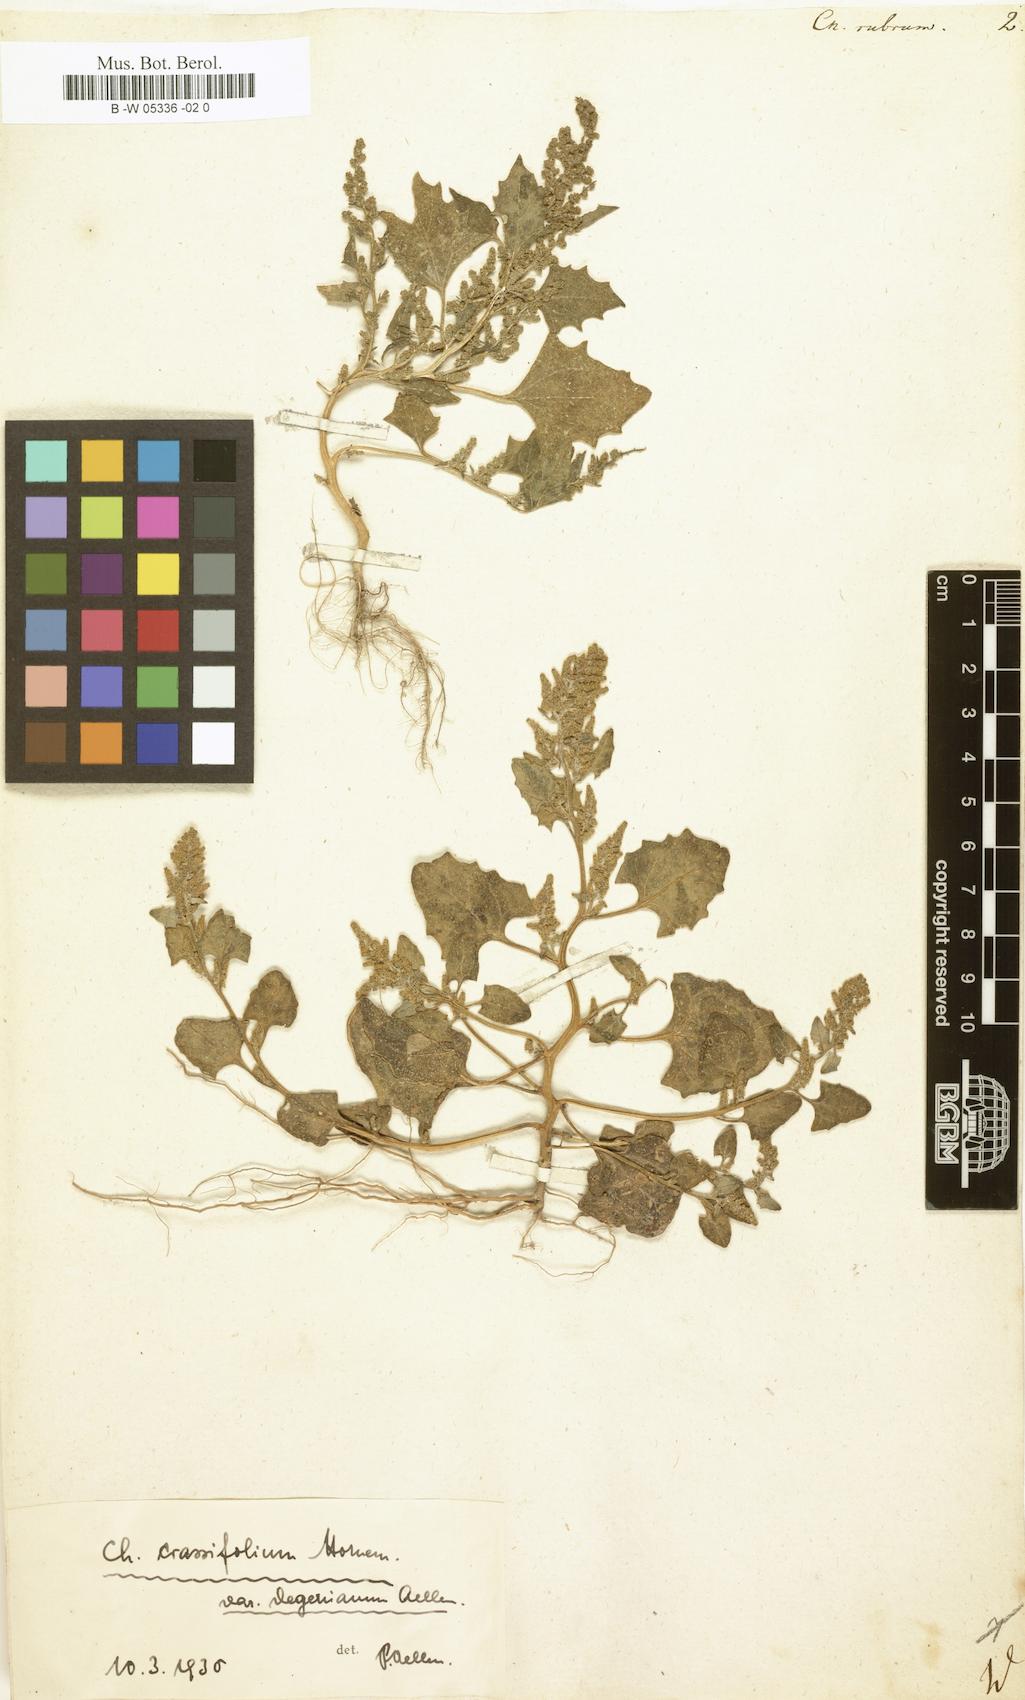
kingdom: Plantae
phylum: Tracheophyta
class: Magnoliopsida
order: Caryophyllales
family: Amaranthaceae
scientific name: Amaranthaceae
